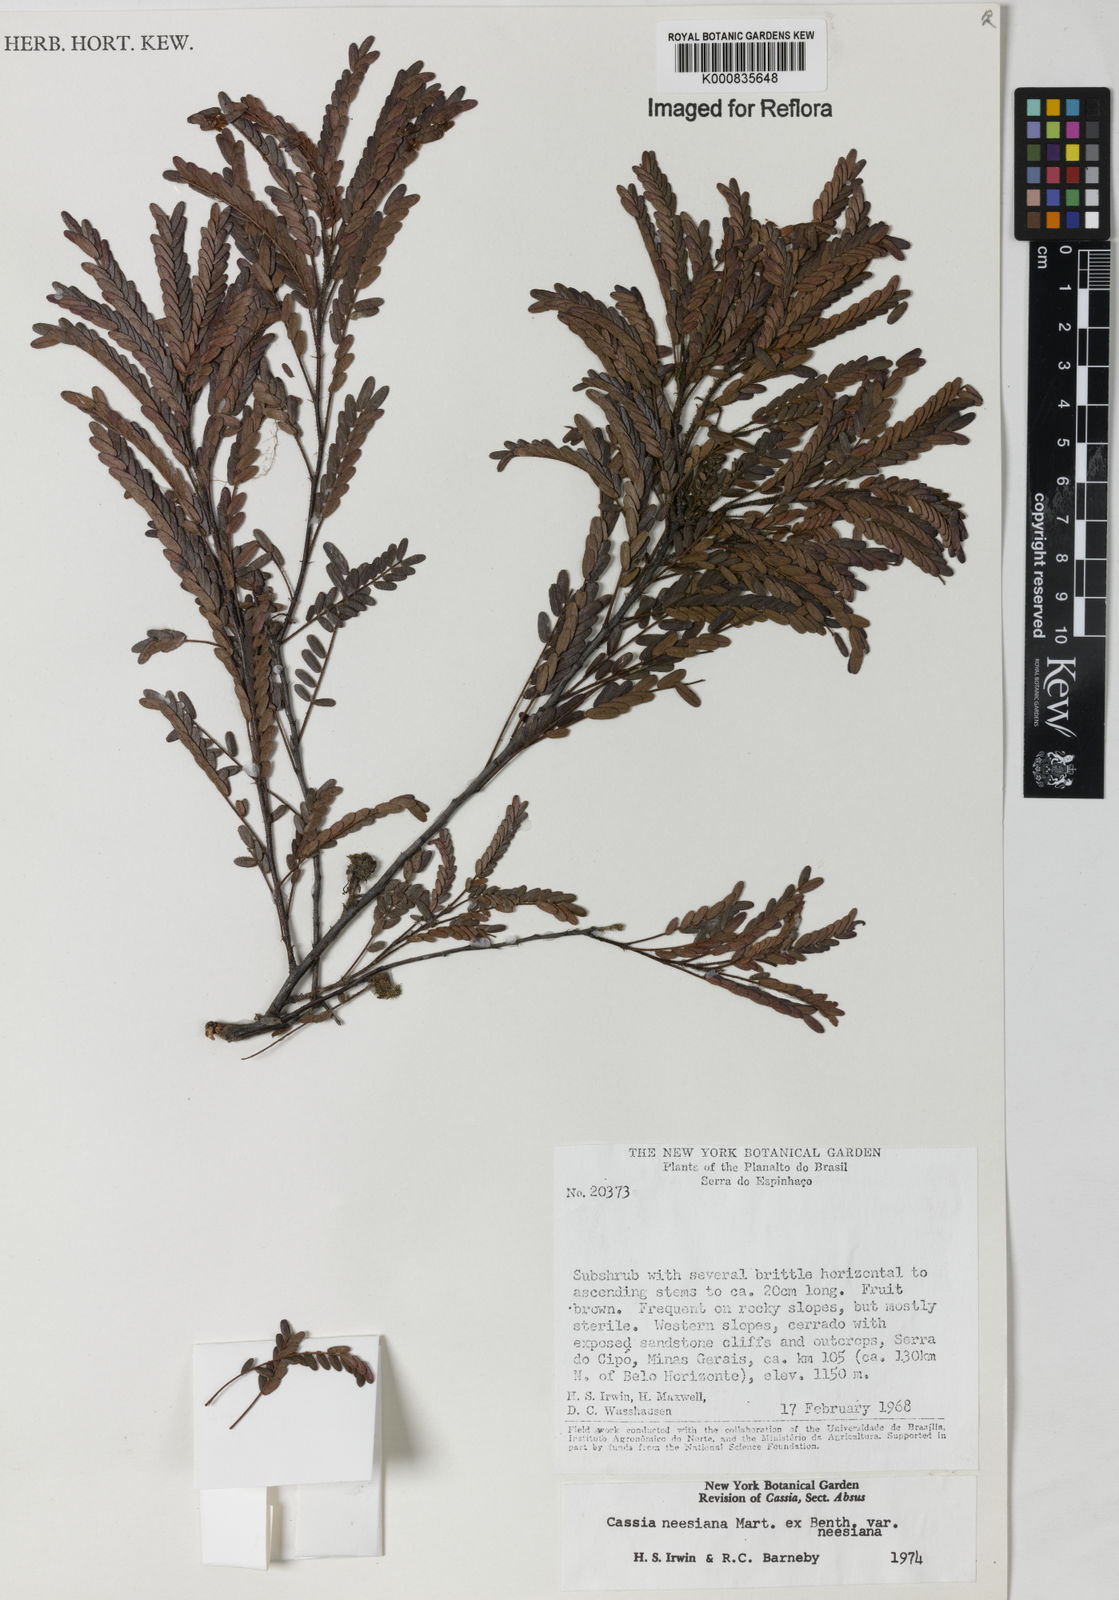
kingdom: Plantae
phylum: Tracheophyta
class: Magnoliopsida
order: Fabales
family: Fabaceae
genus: Chamaecrista
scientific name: Chamaecrista neesiana
